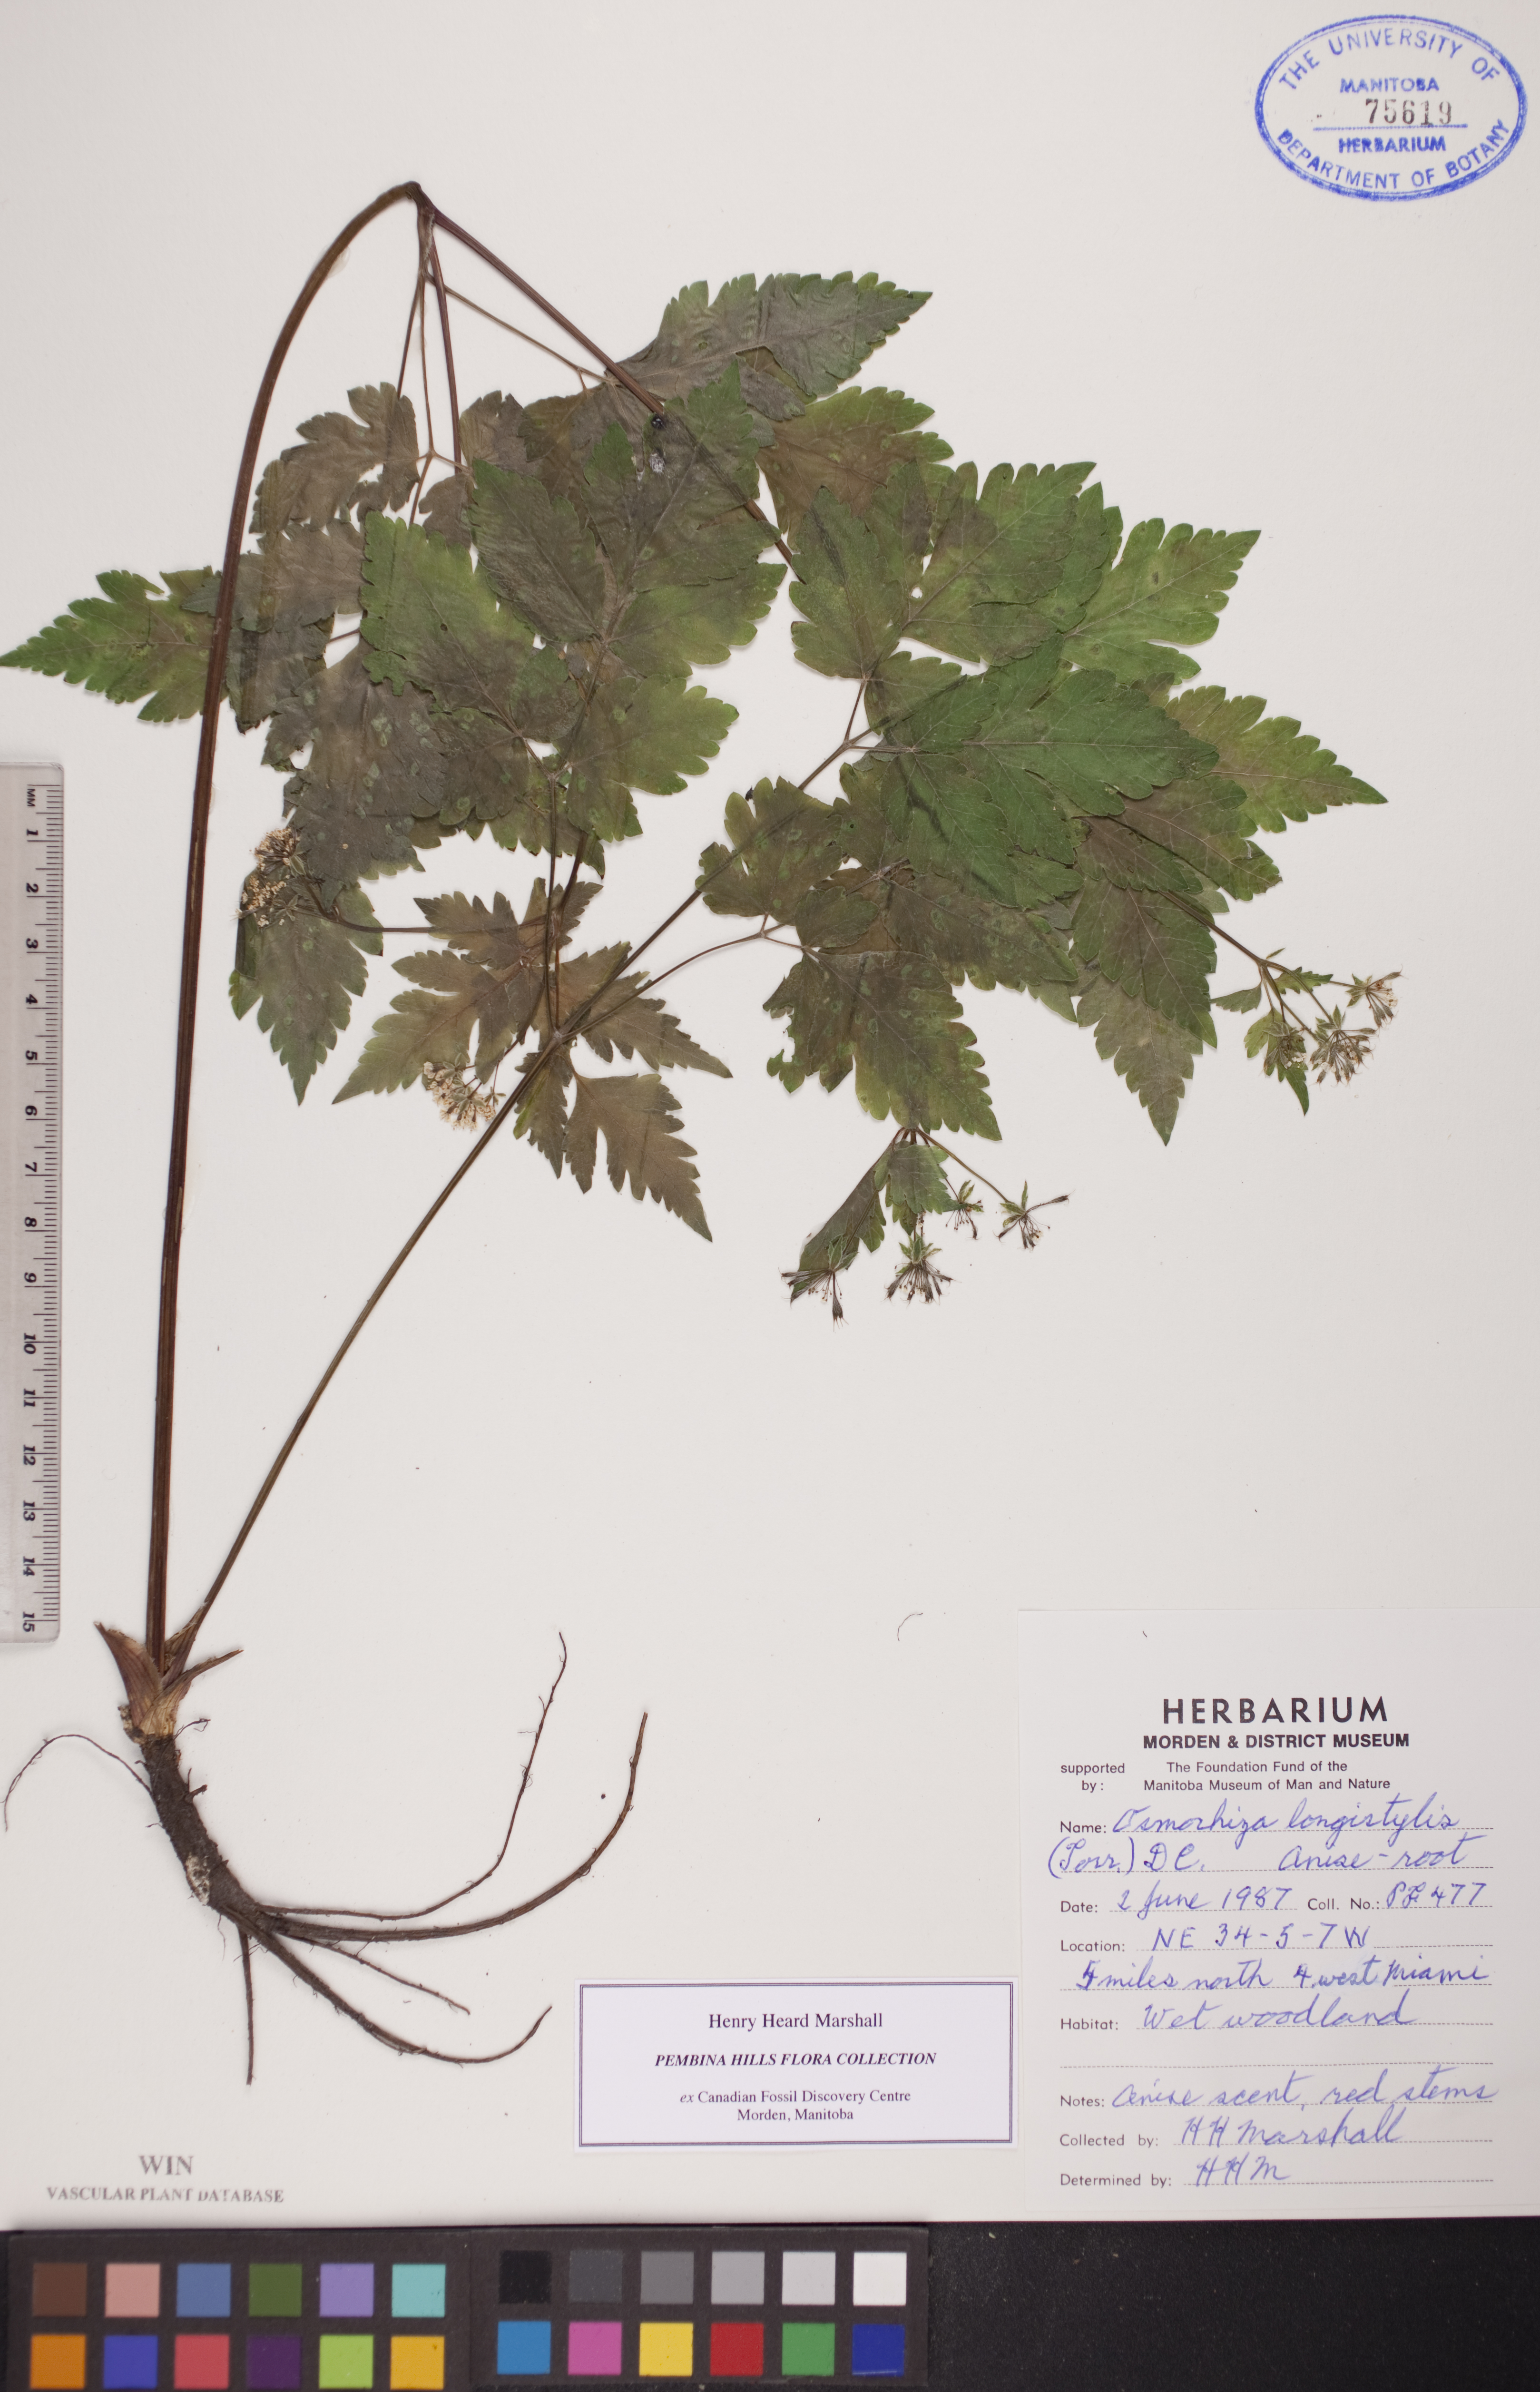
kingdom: Plantae
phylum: Tracheophyta
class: Magnoliopsida
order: Apiales
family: Apiaceae
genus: Osmorhiza
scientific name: Osmorhiza longistylis
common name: Smooth sweet cicely
